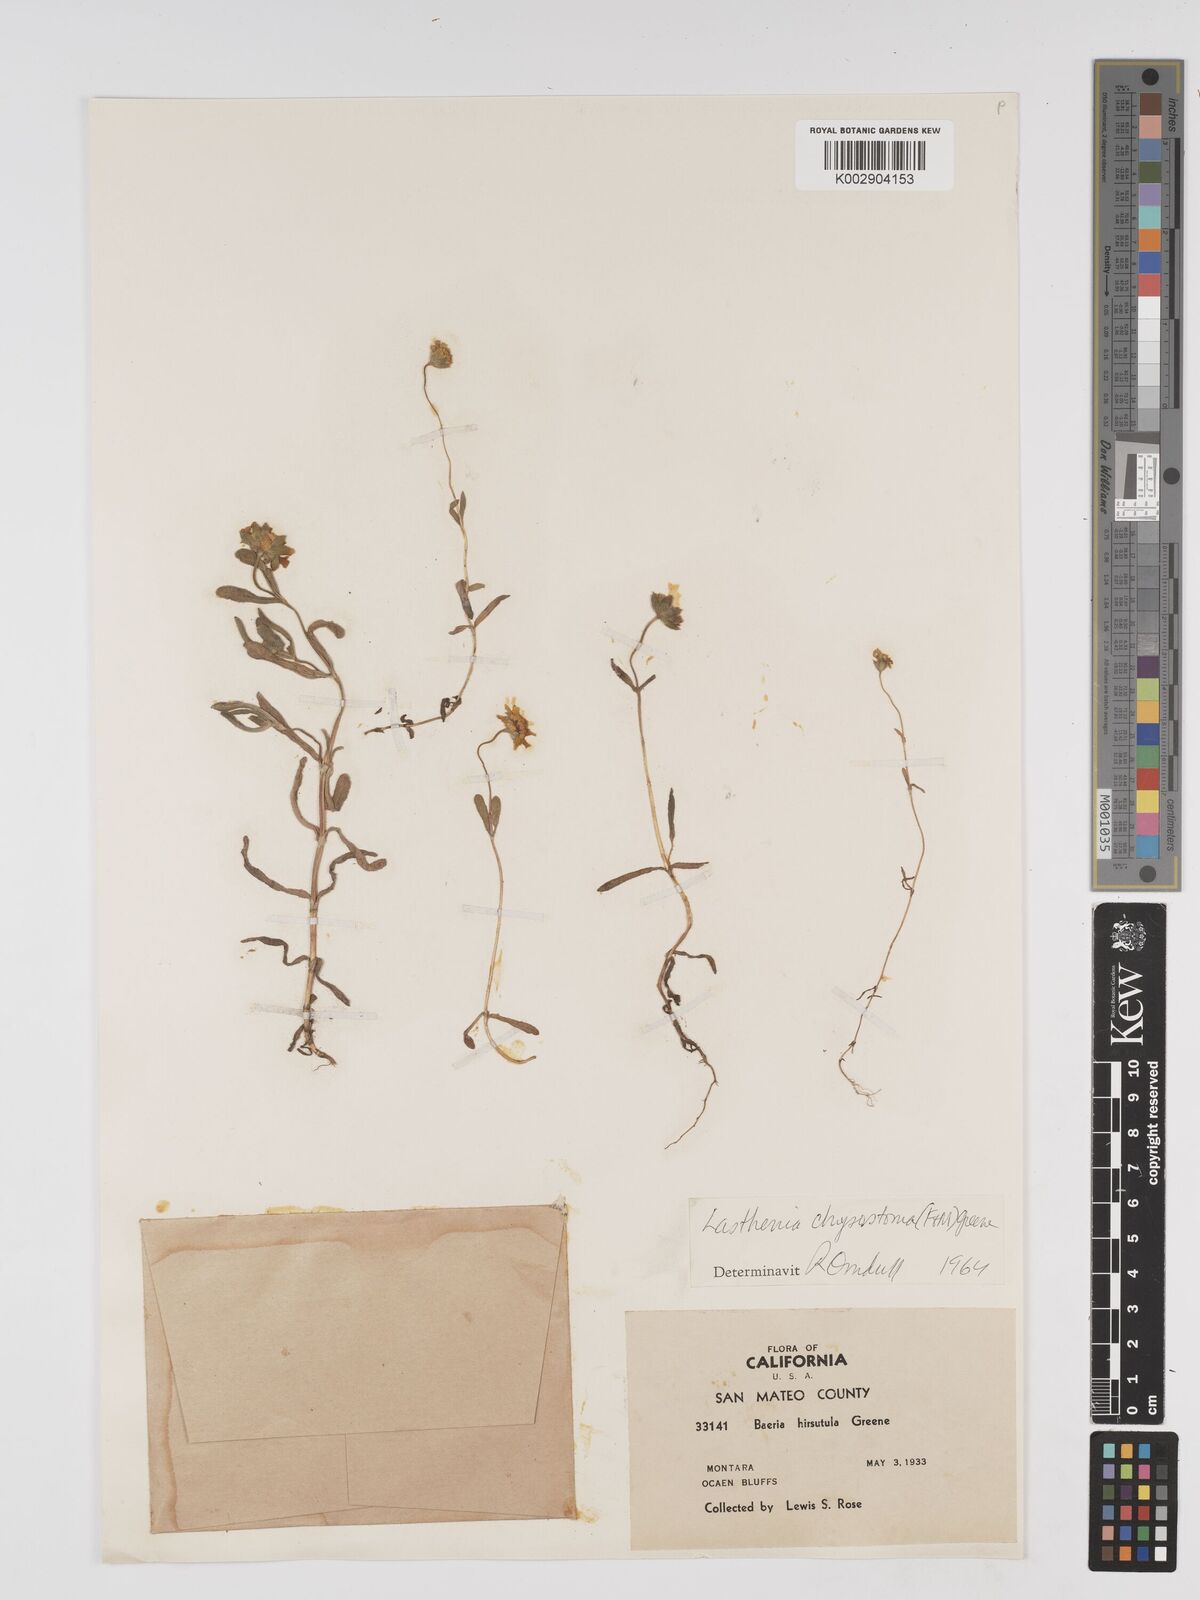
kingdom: Plantae
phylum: Tracheophyta
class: Magnoliopsida
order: Asterales
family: Asteraceae
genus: Lasthenia
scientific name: Lasthenia californica
